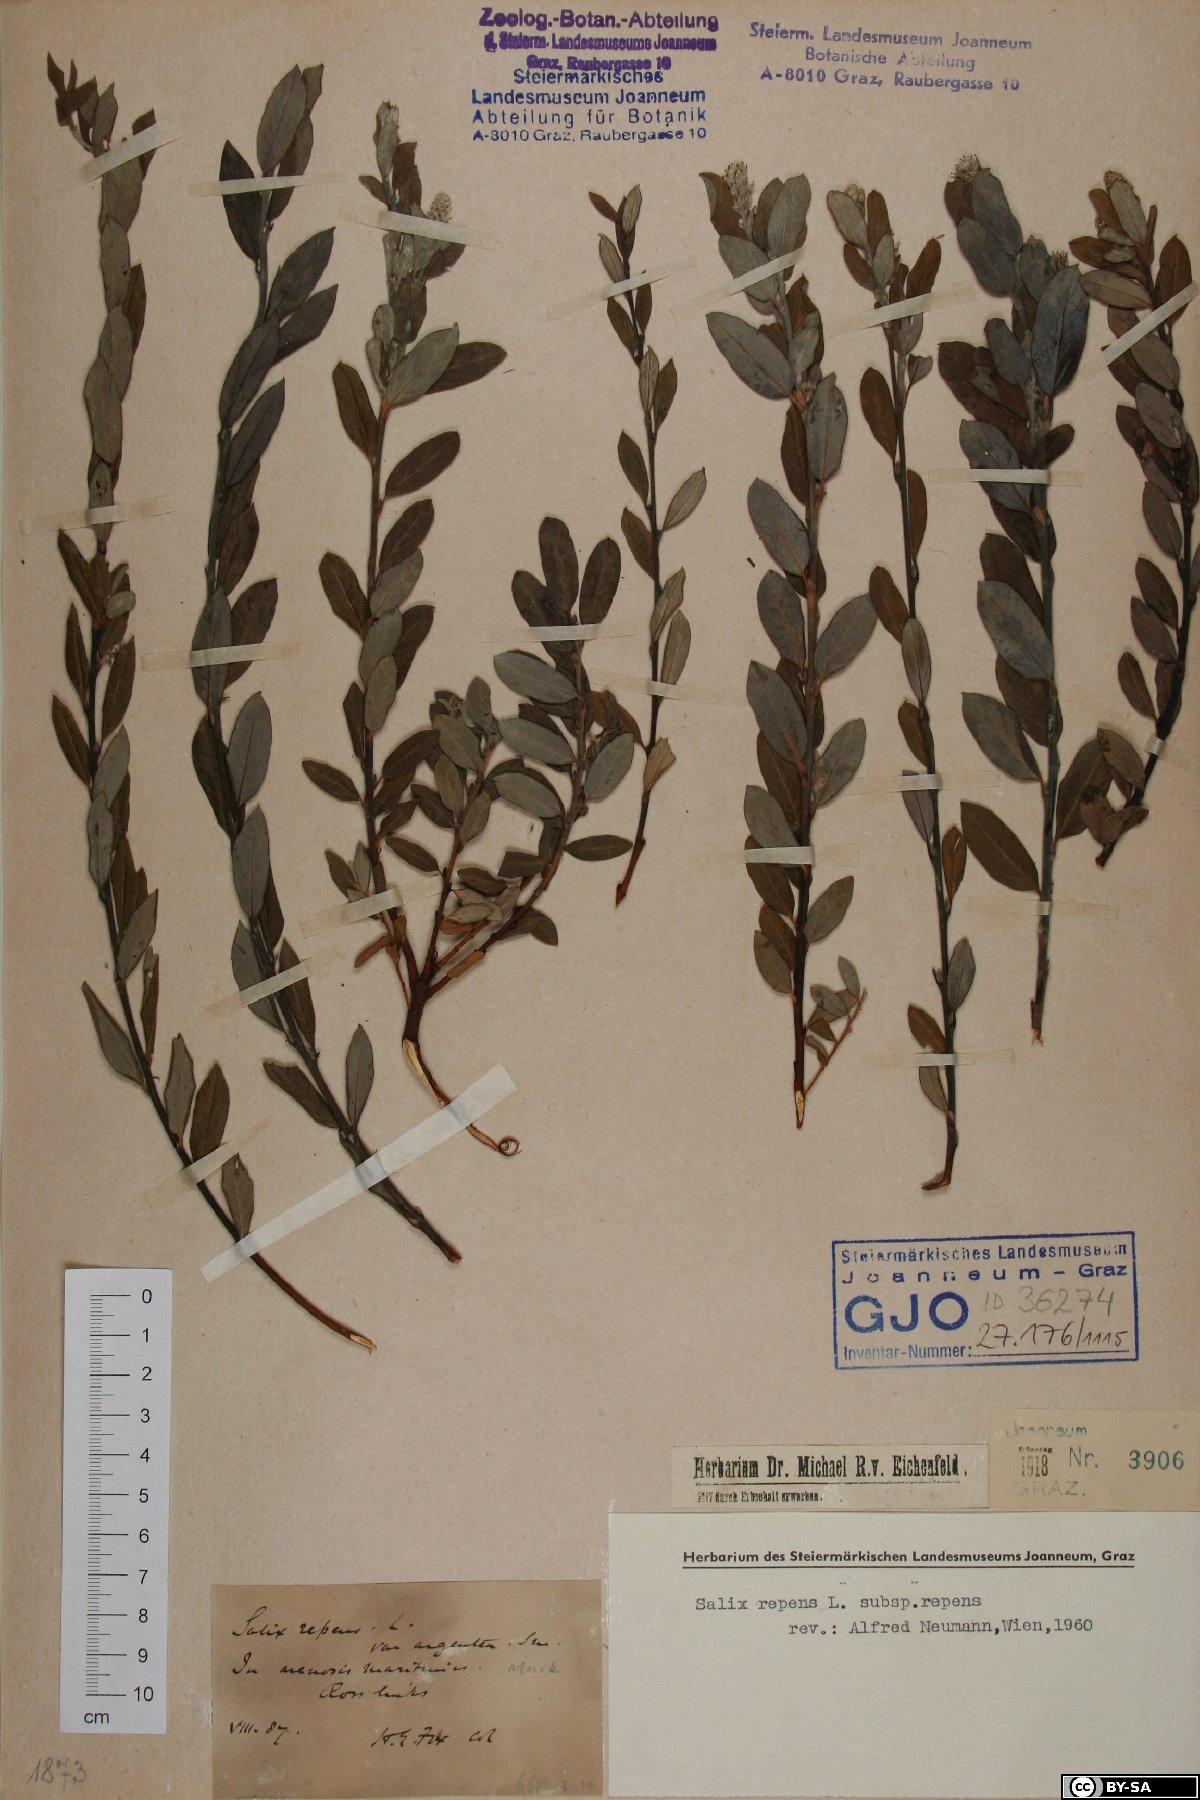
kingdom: Plantae
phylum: Tracheophyta
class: Magnoliopsida
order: Malpighiales
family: Salicaceae
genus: Salix
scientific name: Salix repens
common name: Creeping willow
